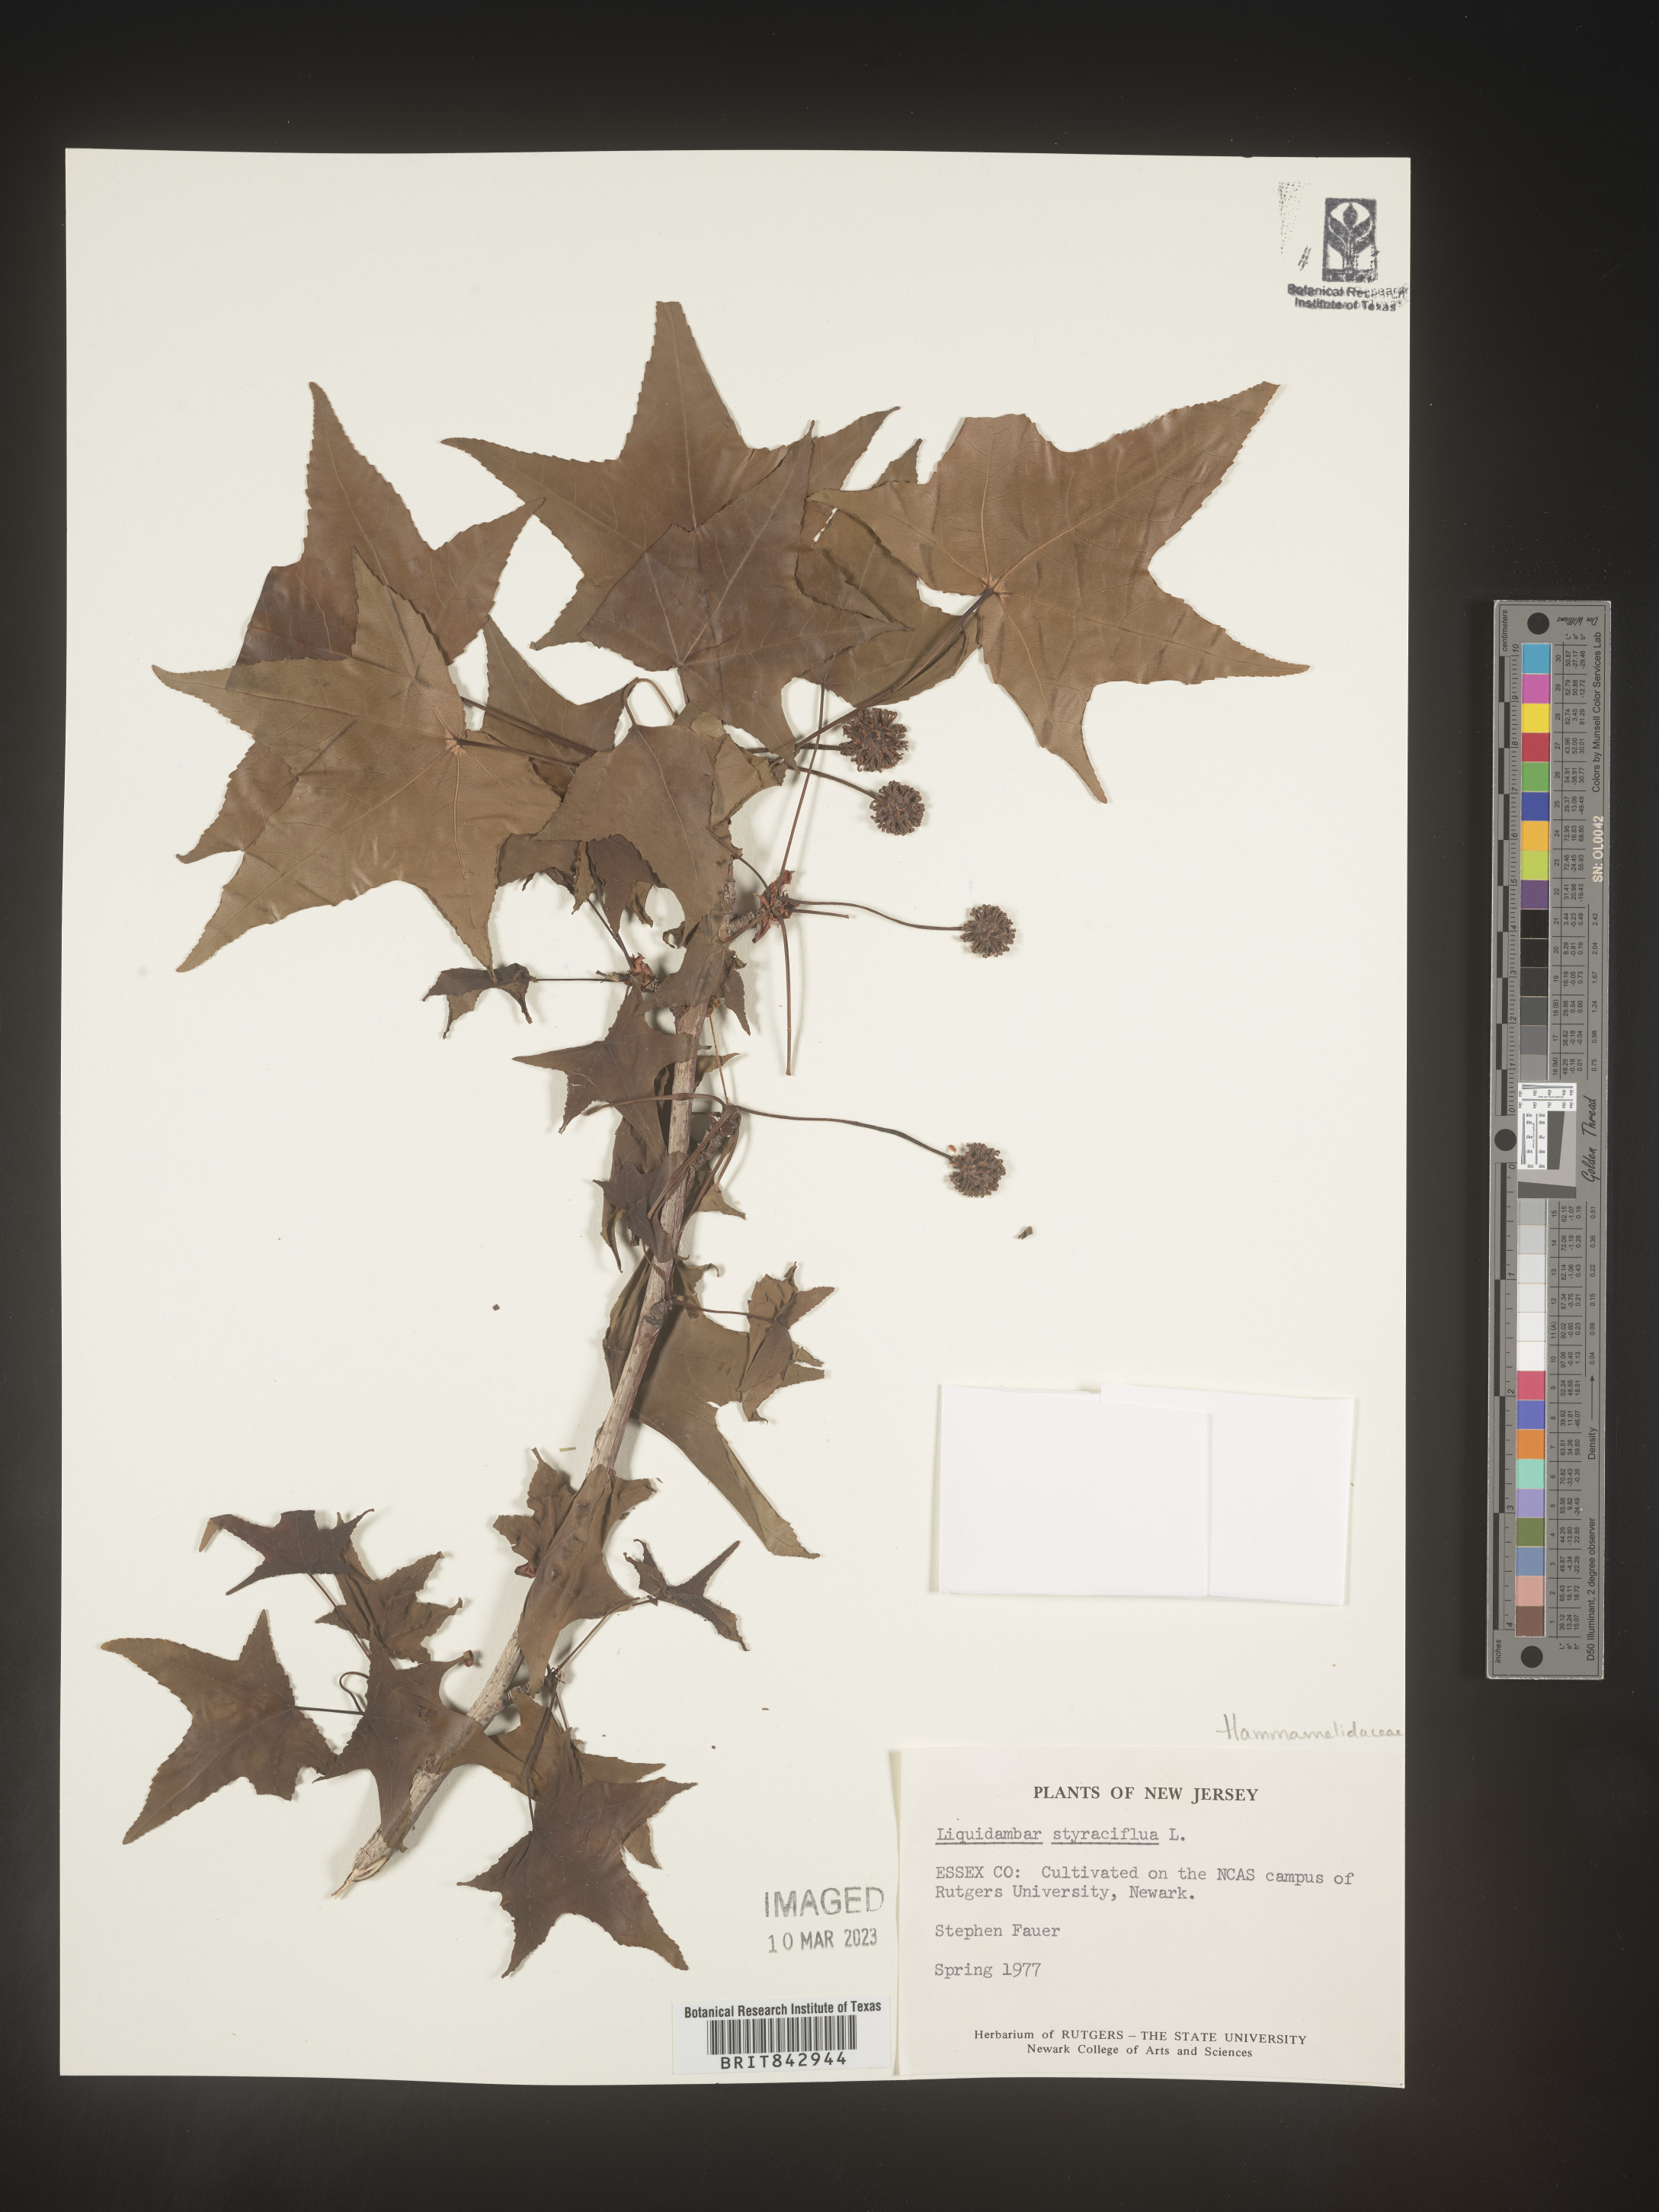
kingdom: Plantae
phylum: Tracheophyta
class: Magnoliopsida
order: Saxifragales
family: Altingiaceae
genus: Liquidambar
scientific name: Liquidambar styraciflua
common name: Sweet gum
